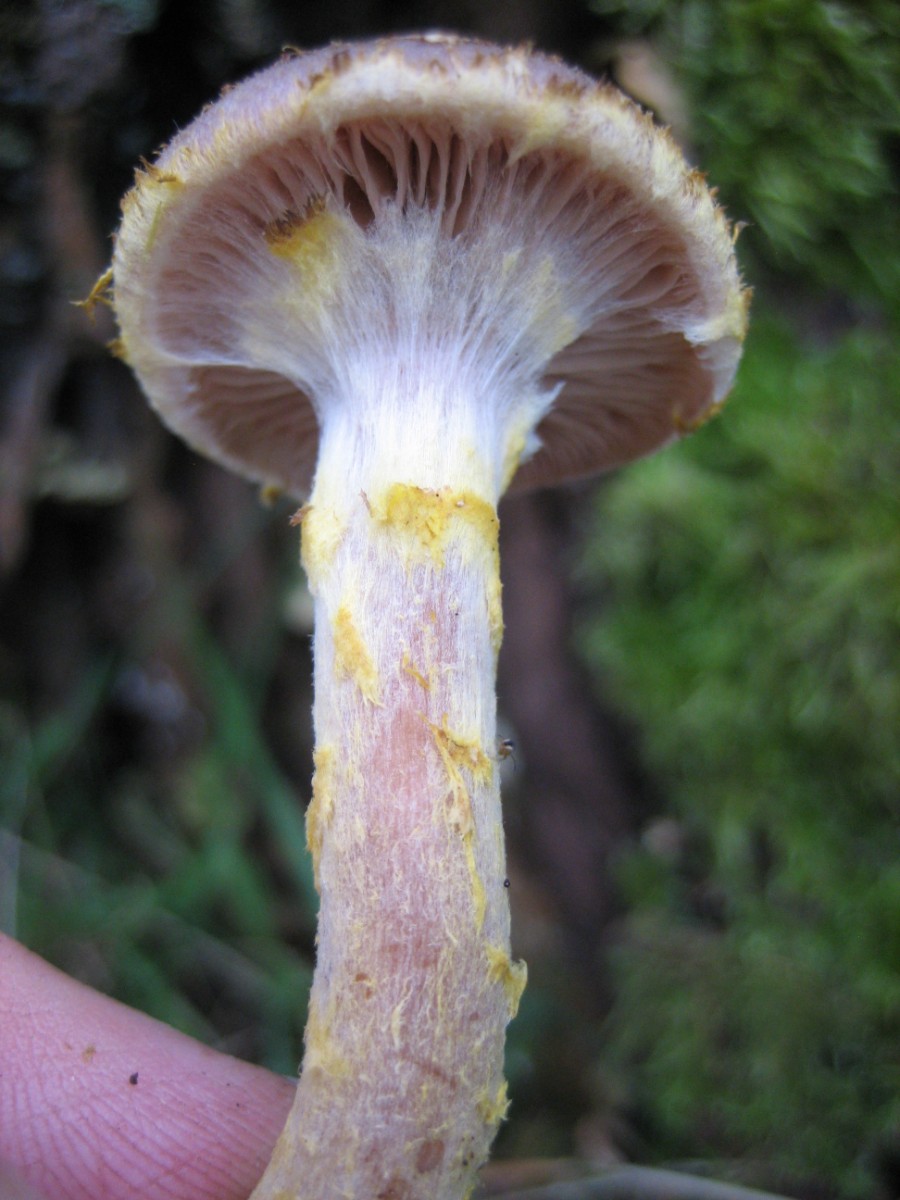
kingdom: Fungi
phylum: Basidiomycota
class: Agaricomycetes
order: Agaricales
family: Physalacriaceae
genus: Armillaria
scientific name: Armillaria lutea
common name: køllestokket honningsvamp
